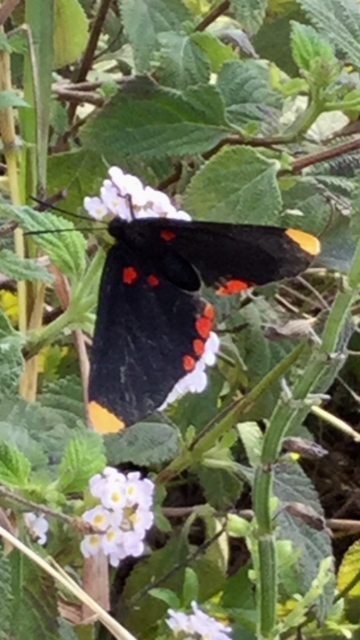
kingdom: Animalia
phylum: Arthropoda
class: Insecta
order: Lepidoptera
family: Lycaenidae
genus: Melanis
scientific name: Melanis pixe
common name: Red-bordered Pixie
